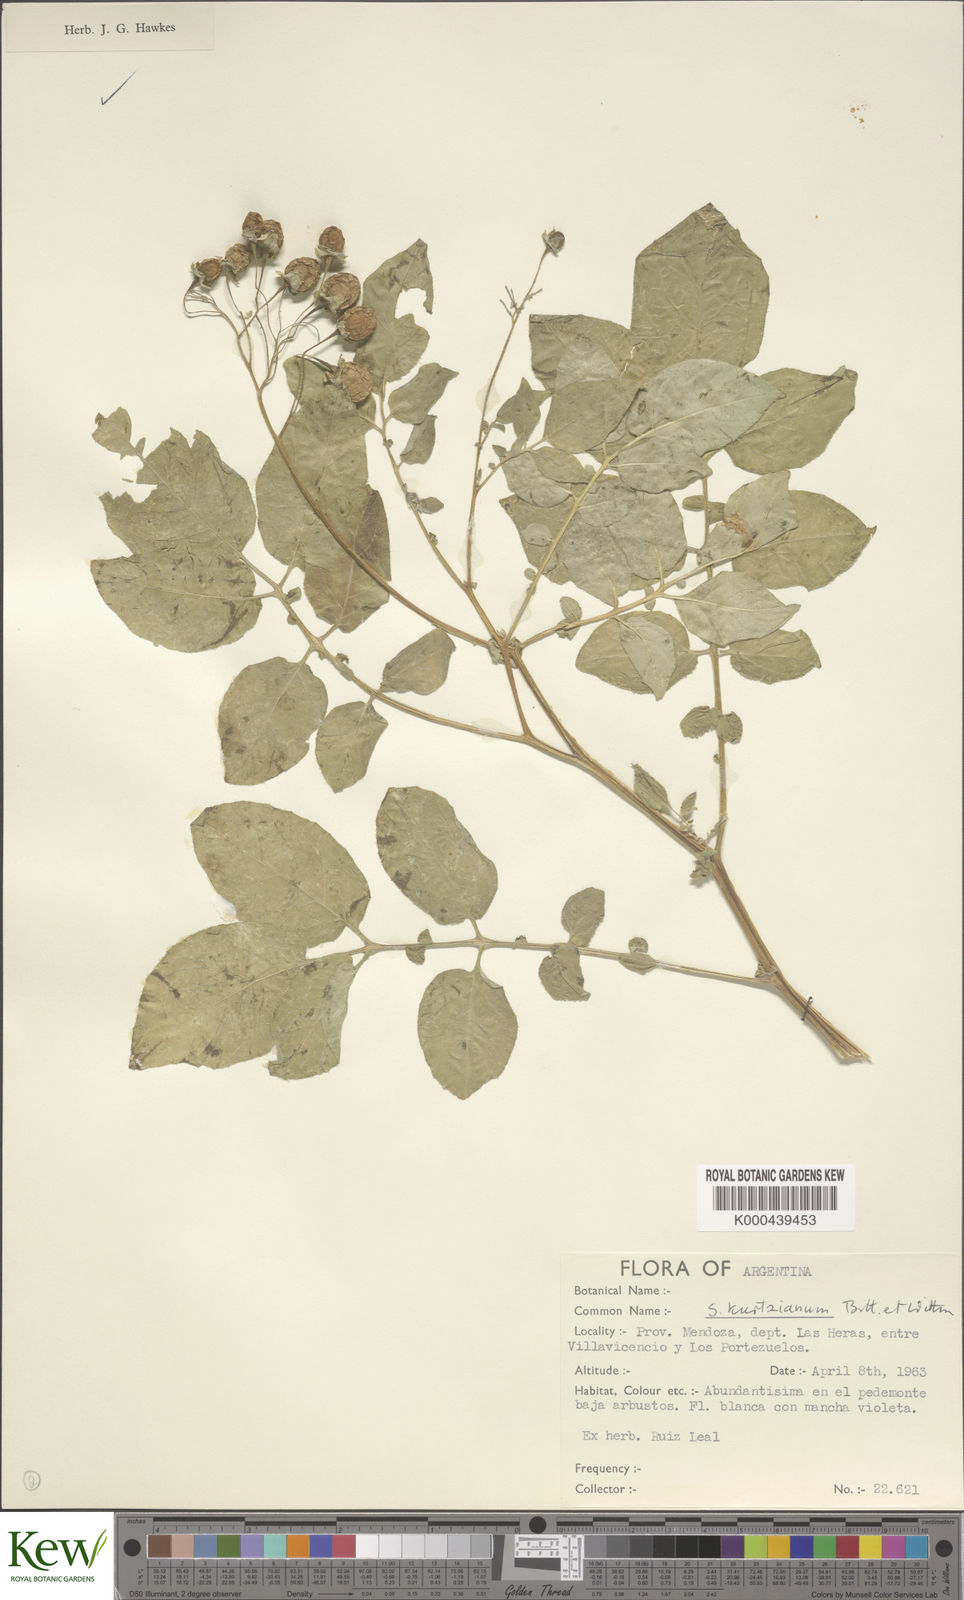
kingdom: Plantae
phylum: Tracheophyta
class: Magnoliopsida
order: Solanales
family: Solanaceae
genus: Solanum
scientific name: Solanum kurtzianum
